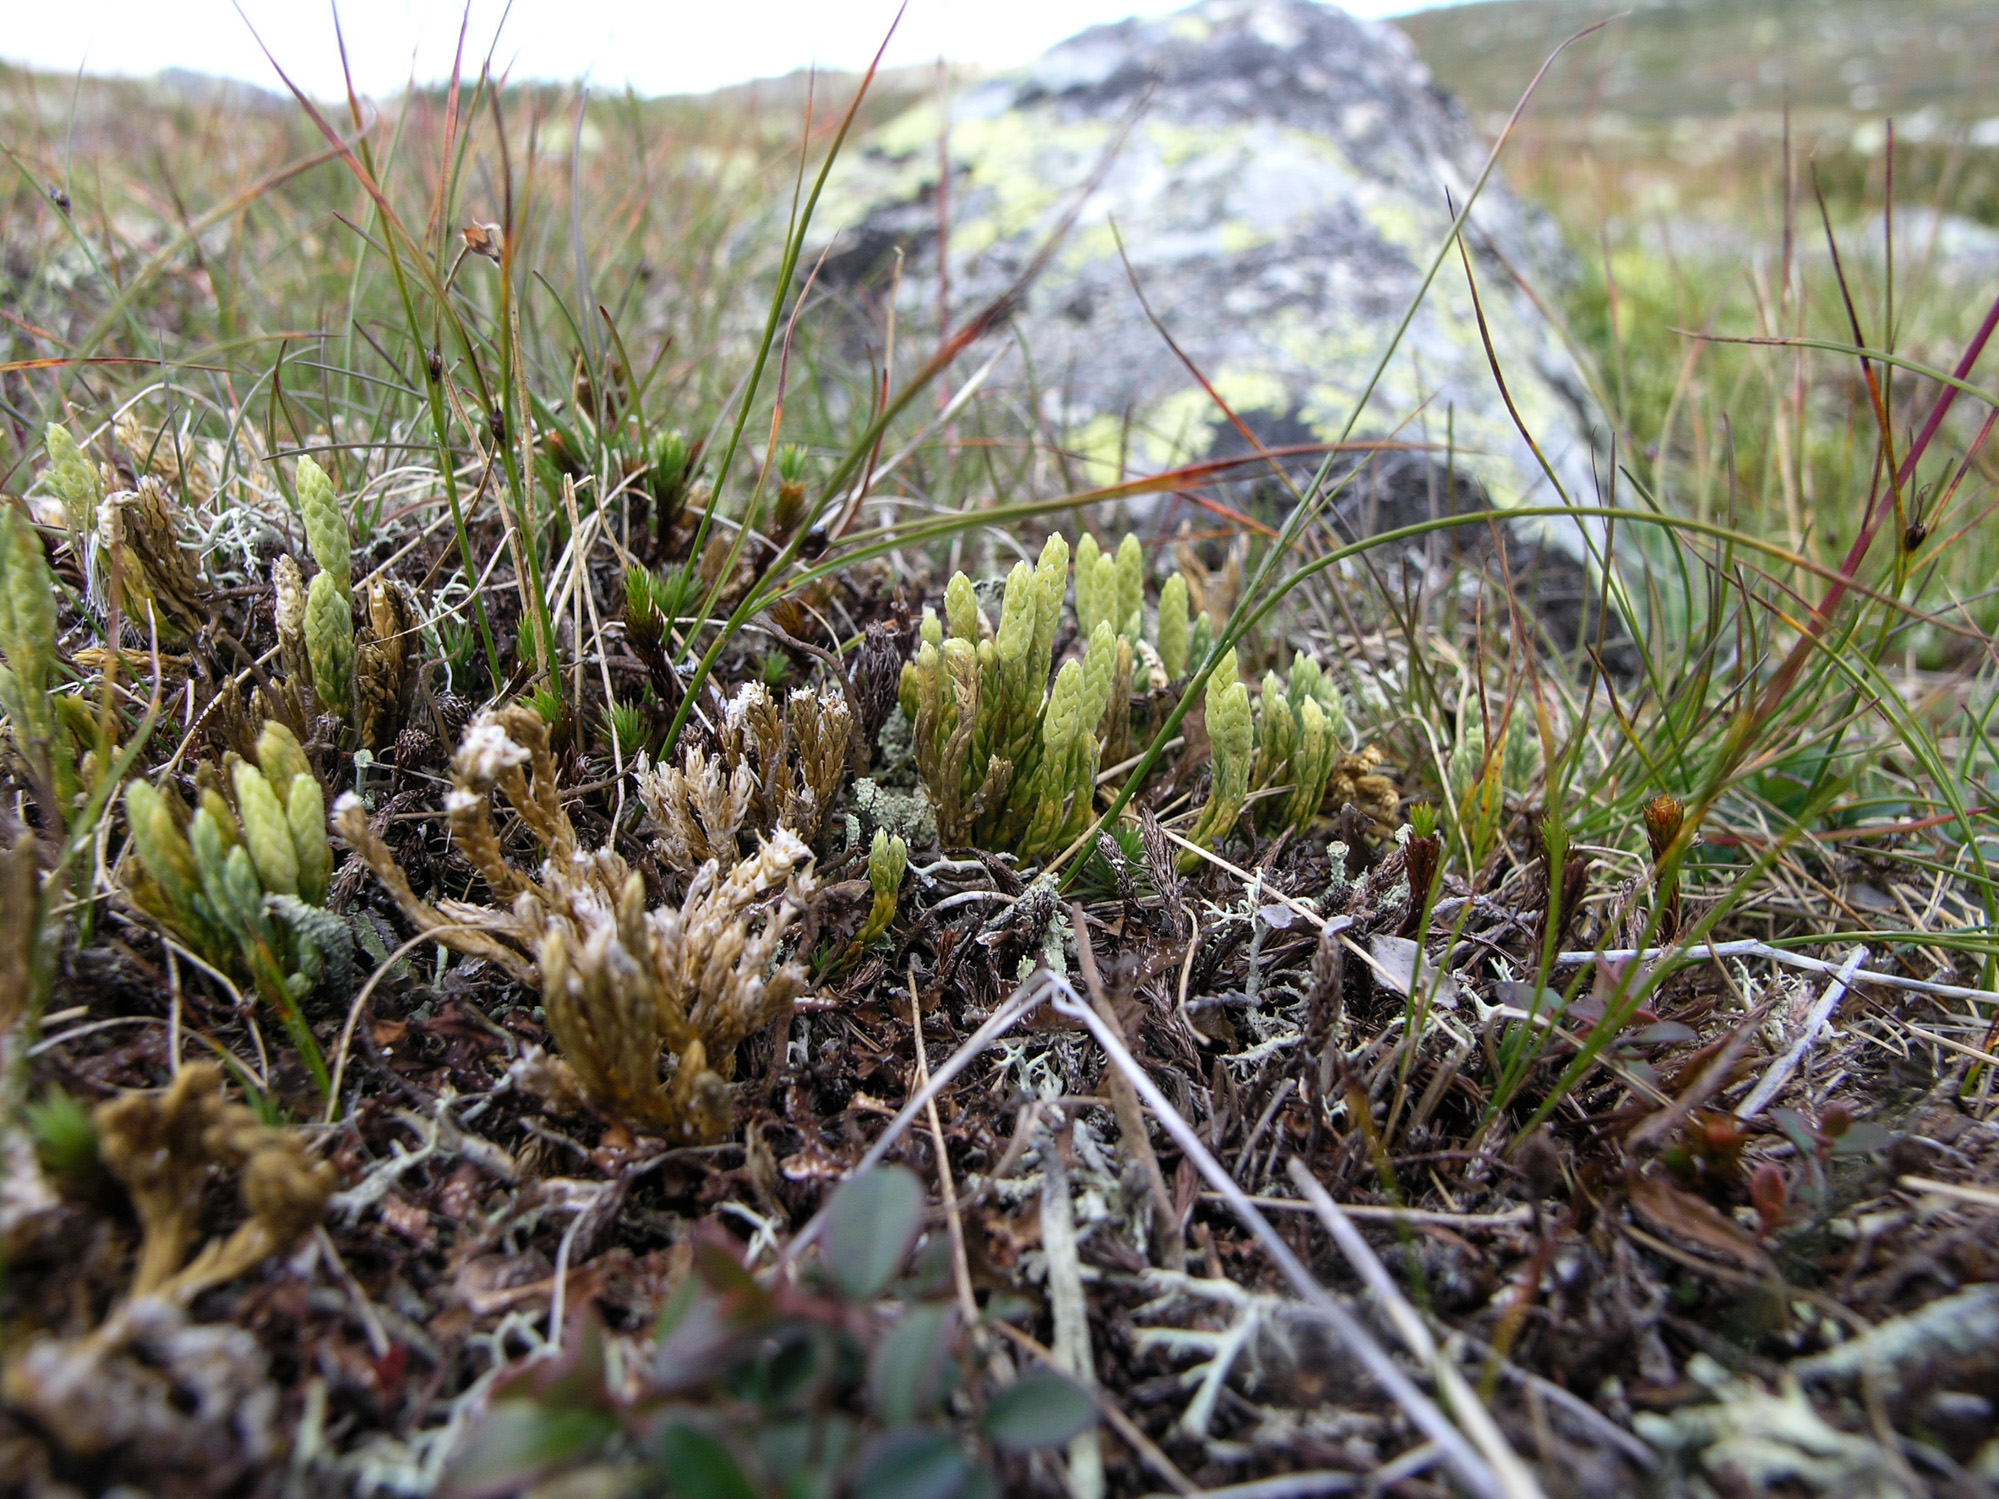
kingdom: Plantae
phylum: Tracheophyta
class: Lycopodiopsida
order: Lycopodiales
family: Lycopodiaceae
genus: Diphasiastrum
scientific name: Diphasiastrum alpinum
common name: Alpine clubmoss
